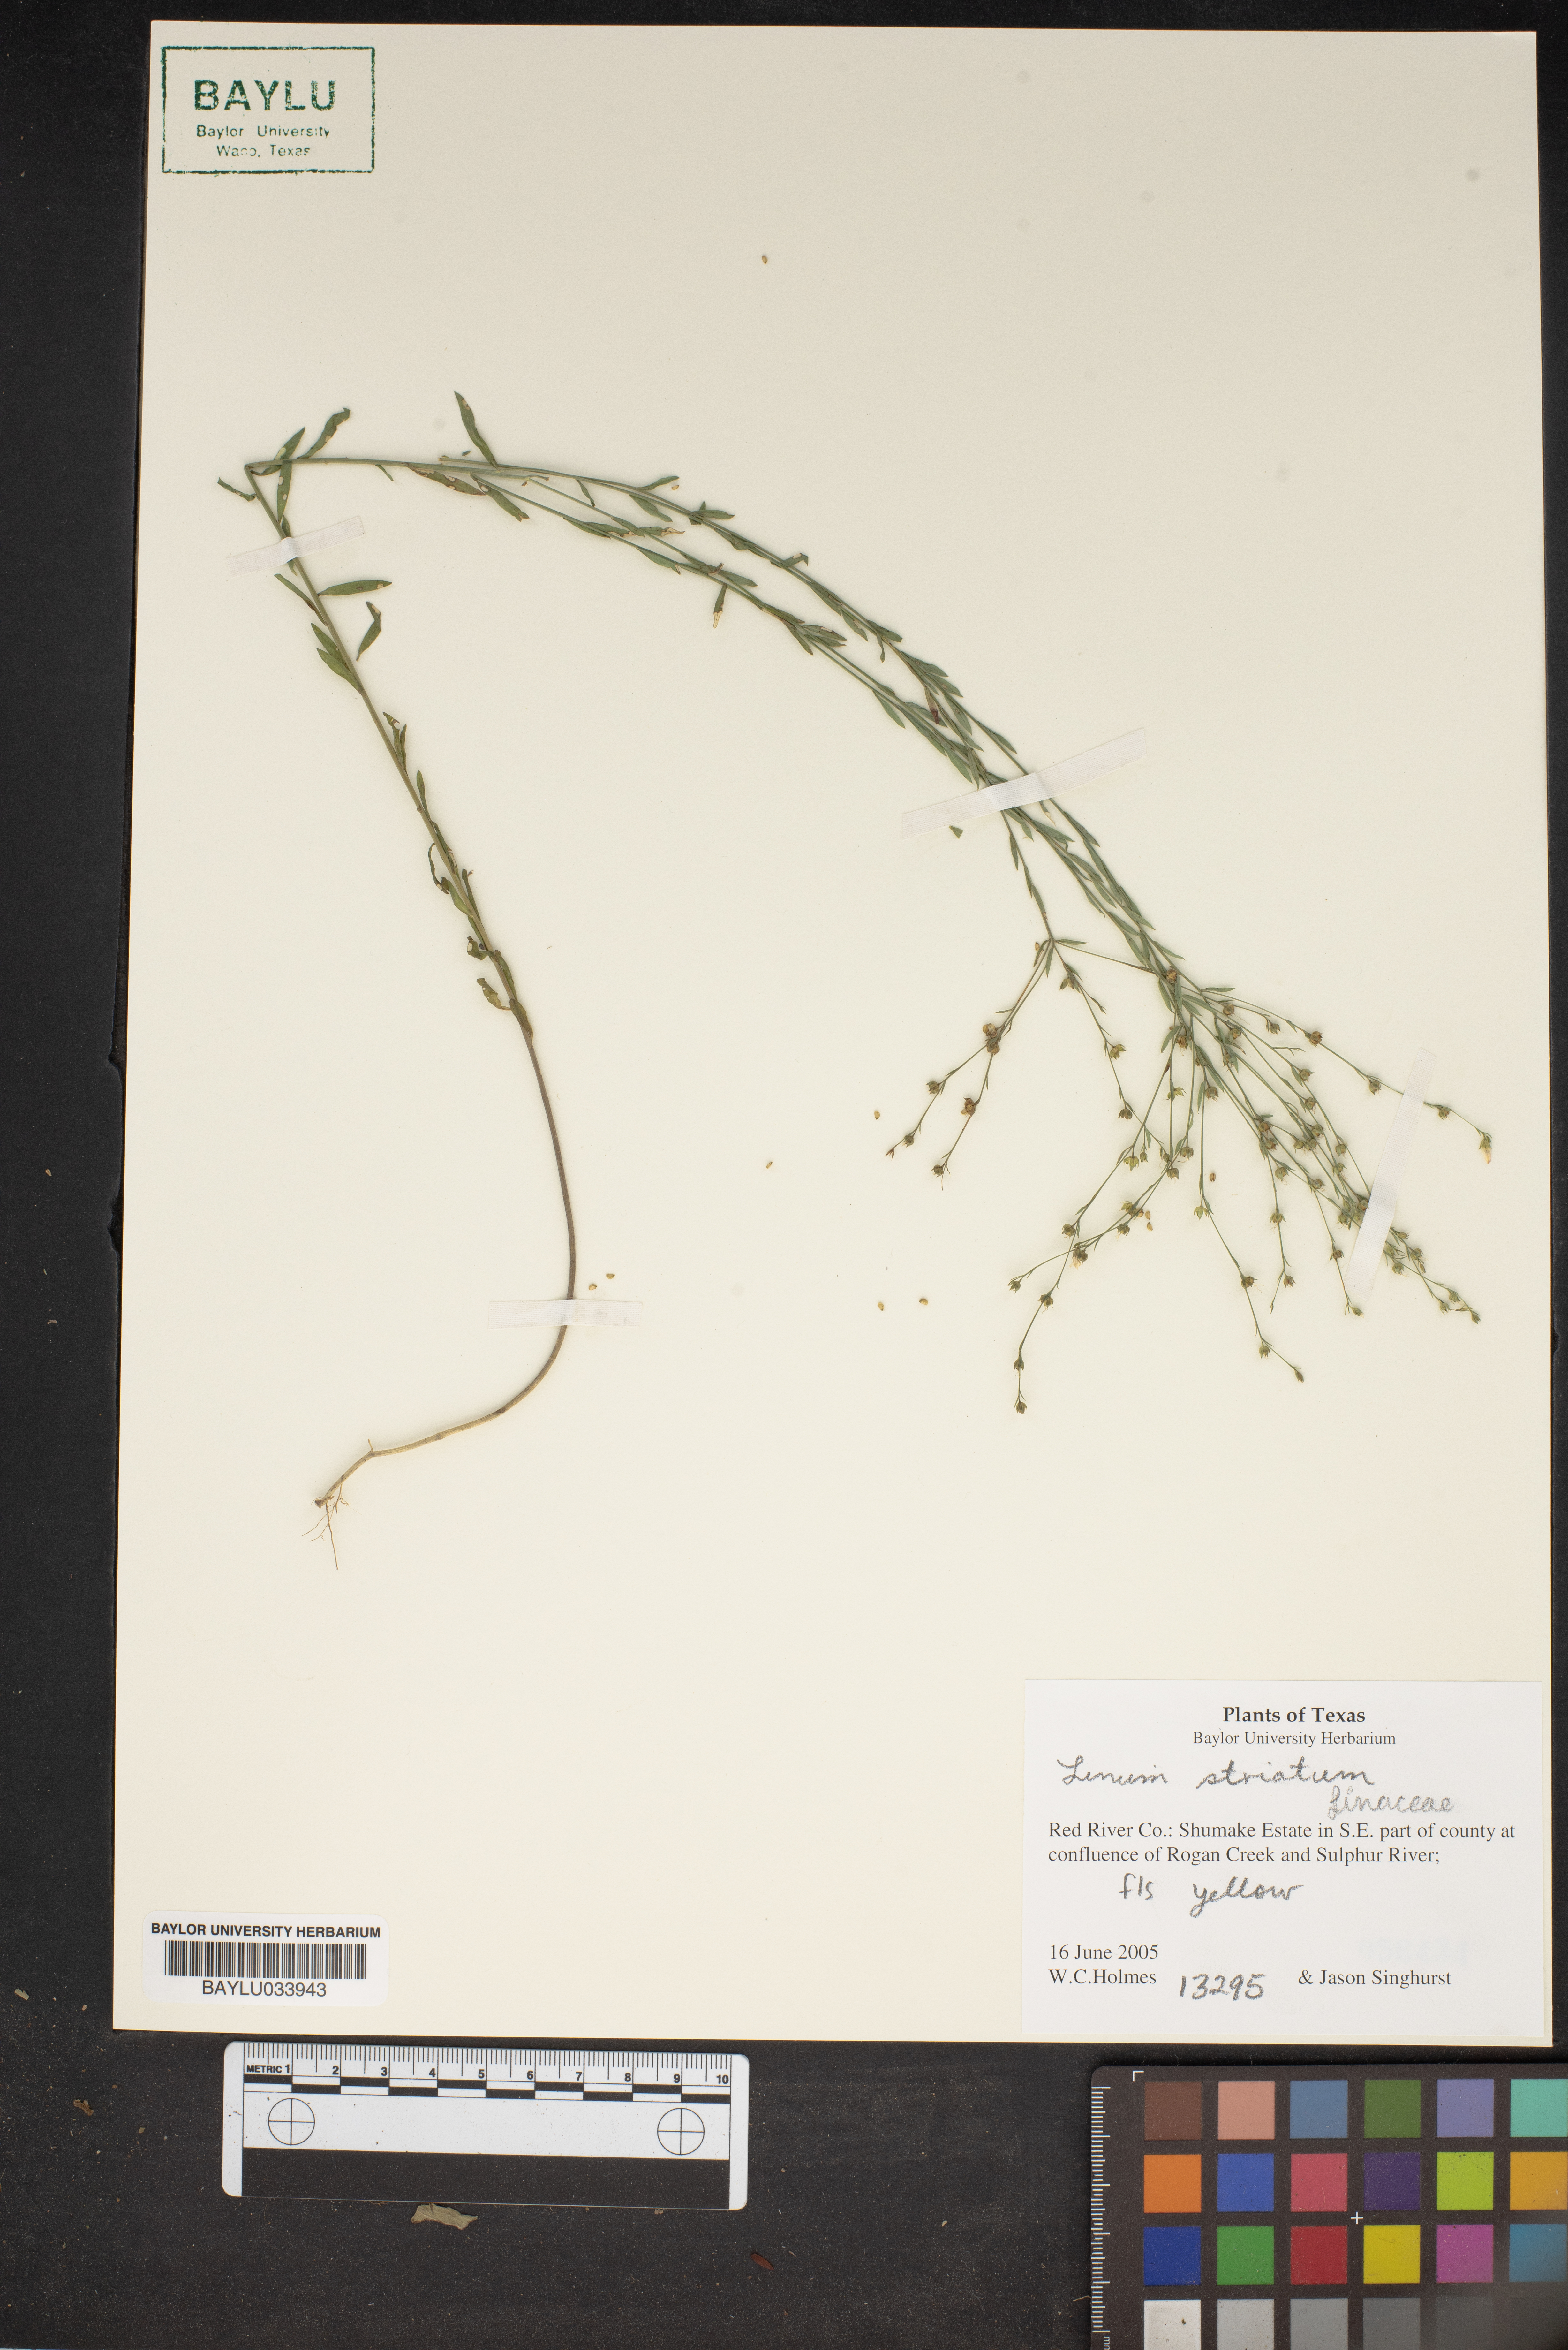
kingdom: Plantae
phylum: Tracheophyta
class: Magnoliopsida
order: Malpighiales
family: Linaceae
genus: Linum
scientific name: Linum striatum
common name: Ridged yellow flax
